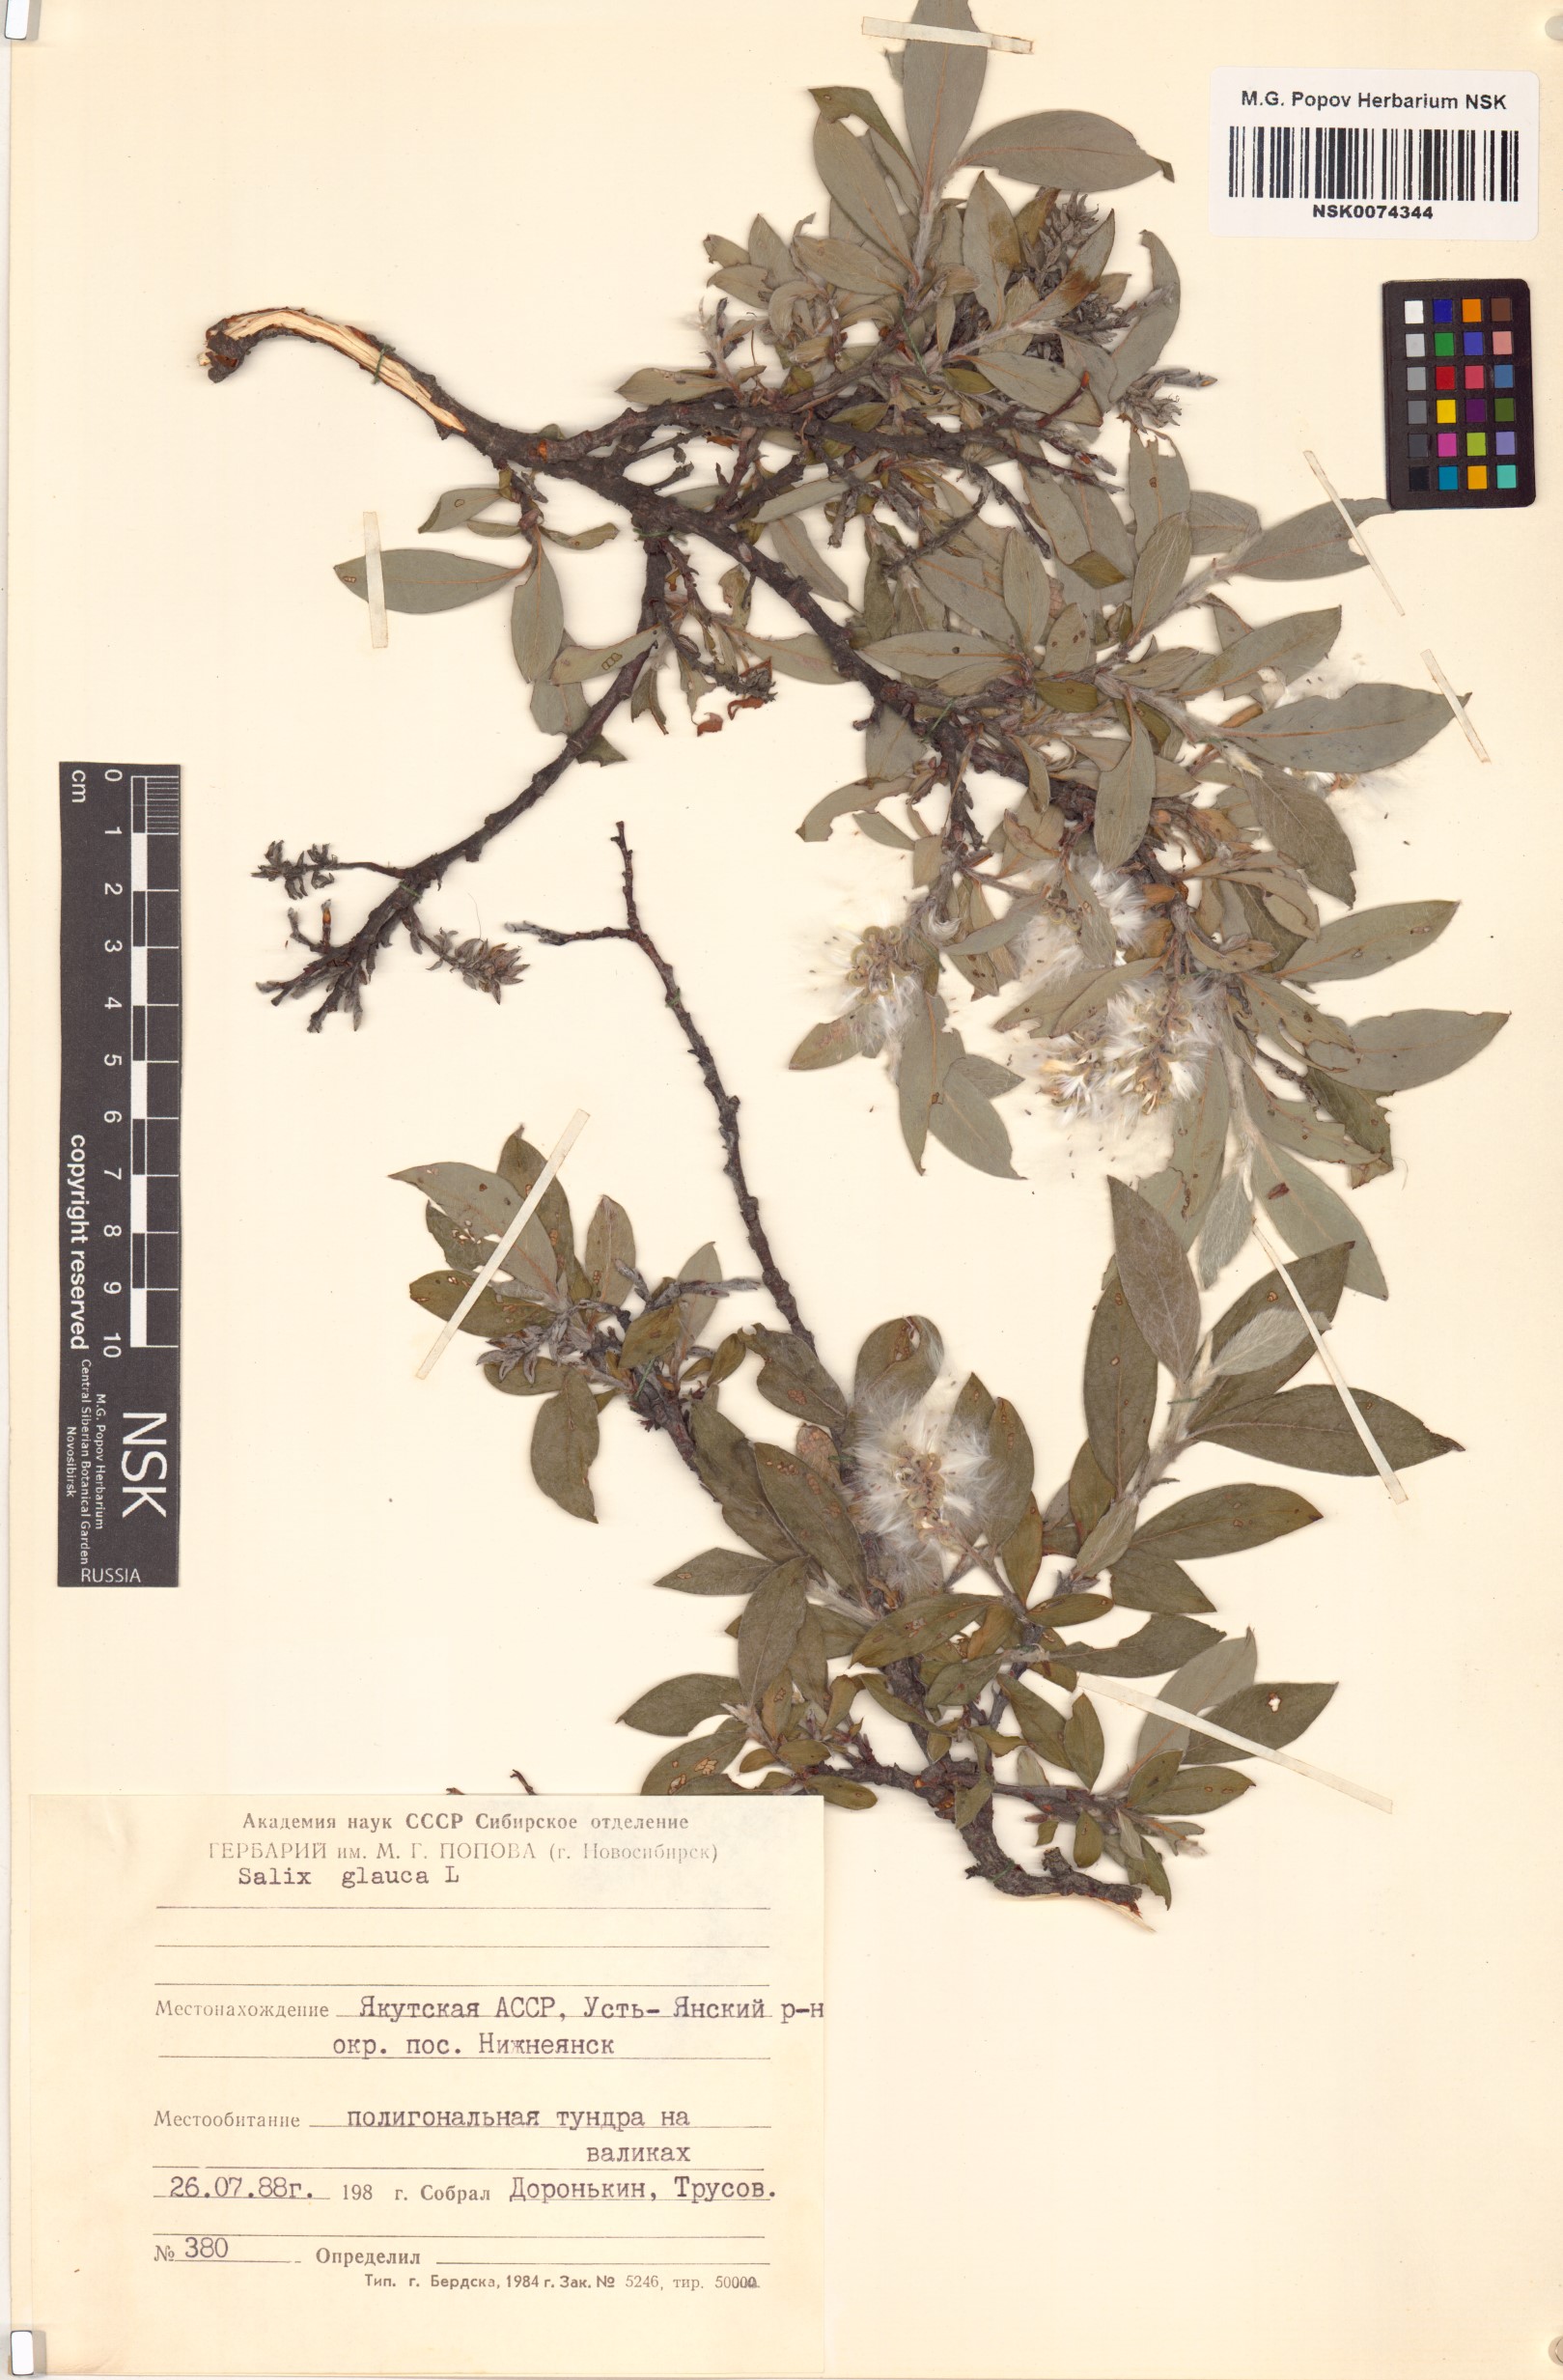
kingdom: Plantae
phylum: Tracheophyta
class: Magnoliopsida
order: Malpighiales
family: Salicaceae
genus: Salix
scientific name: Salix glauca
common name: Glaucous willow
